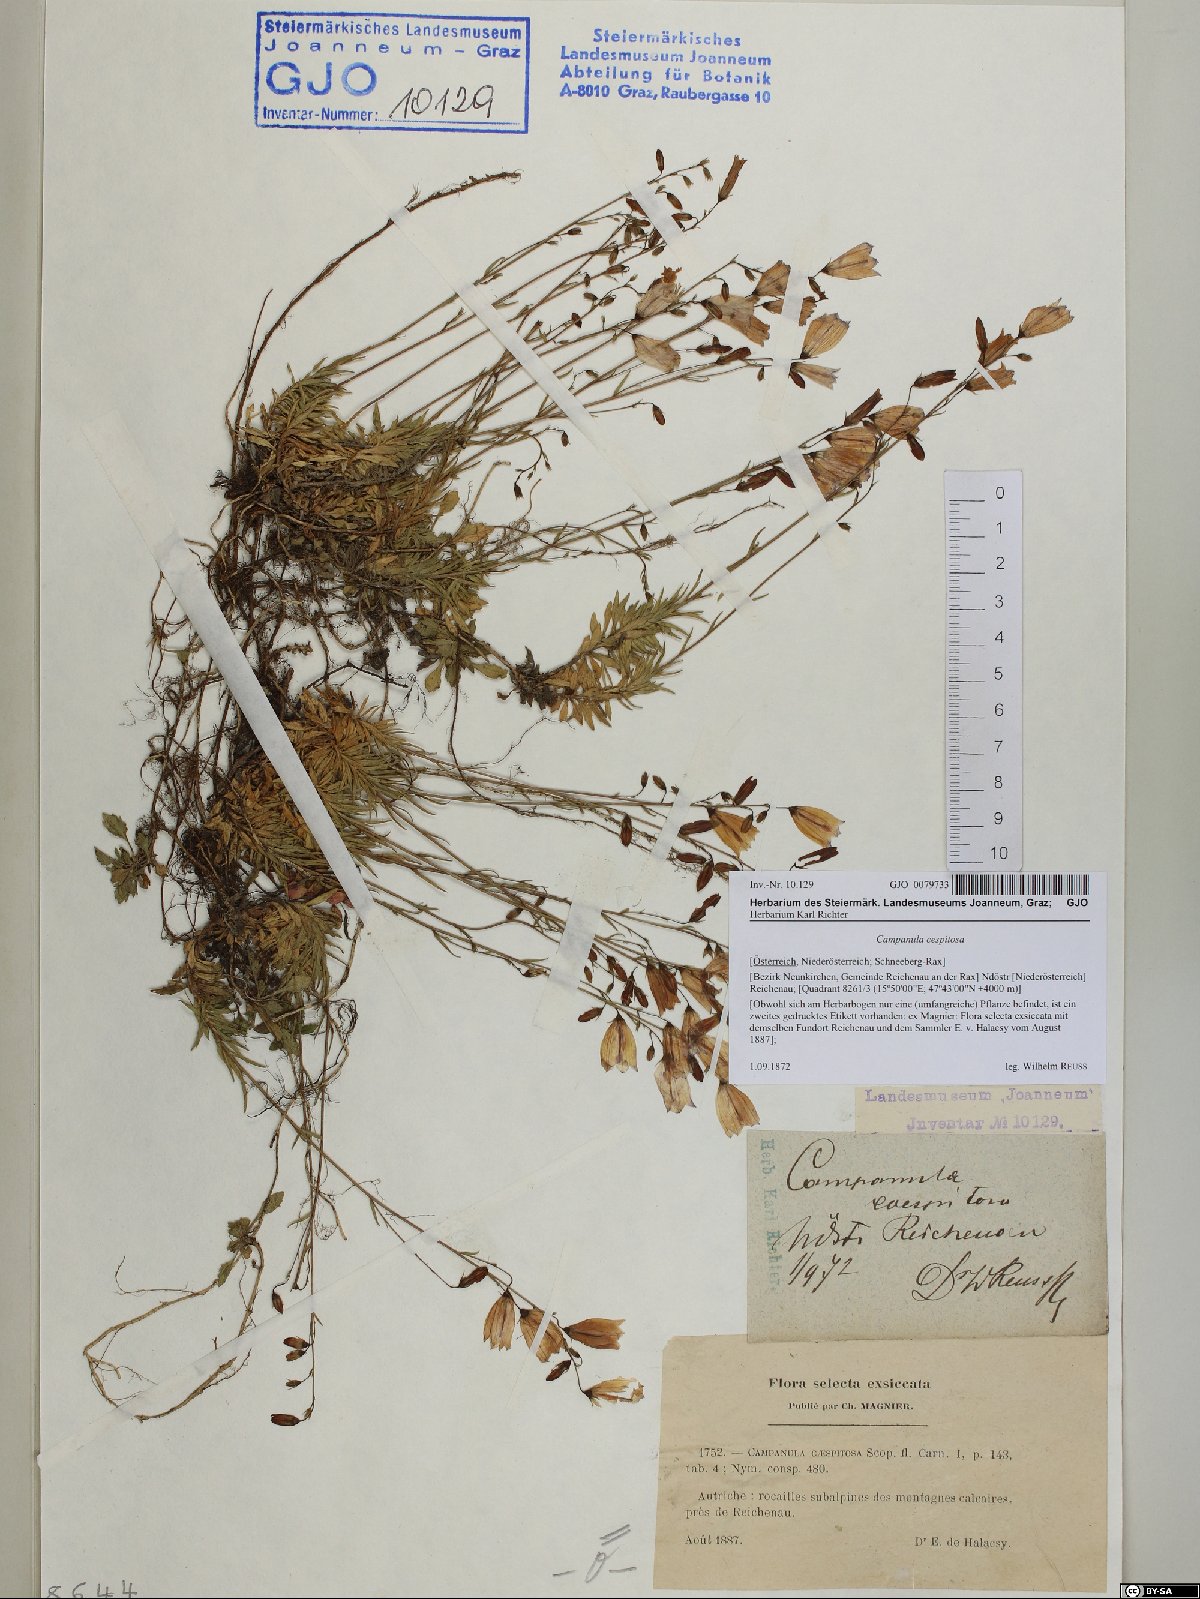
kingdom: Plantae
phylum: Tracheophyta
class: Magnoliopsida
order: Asterales
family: Campanulaceae
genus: Campanula
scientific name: Campanula cespitosa
